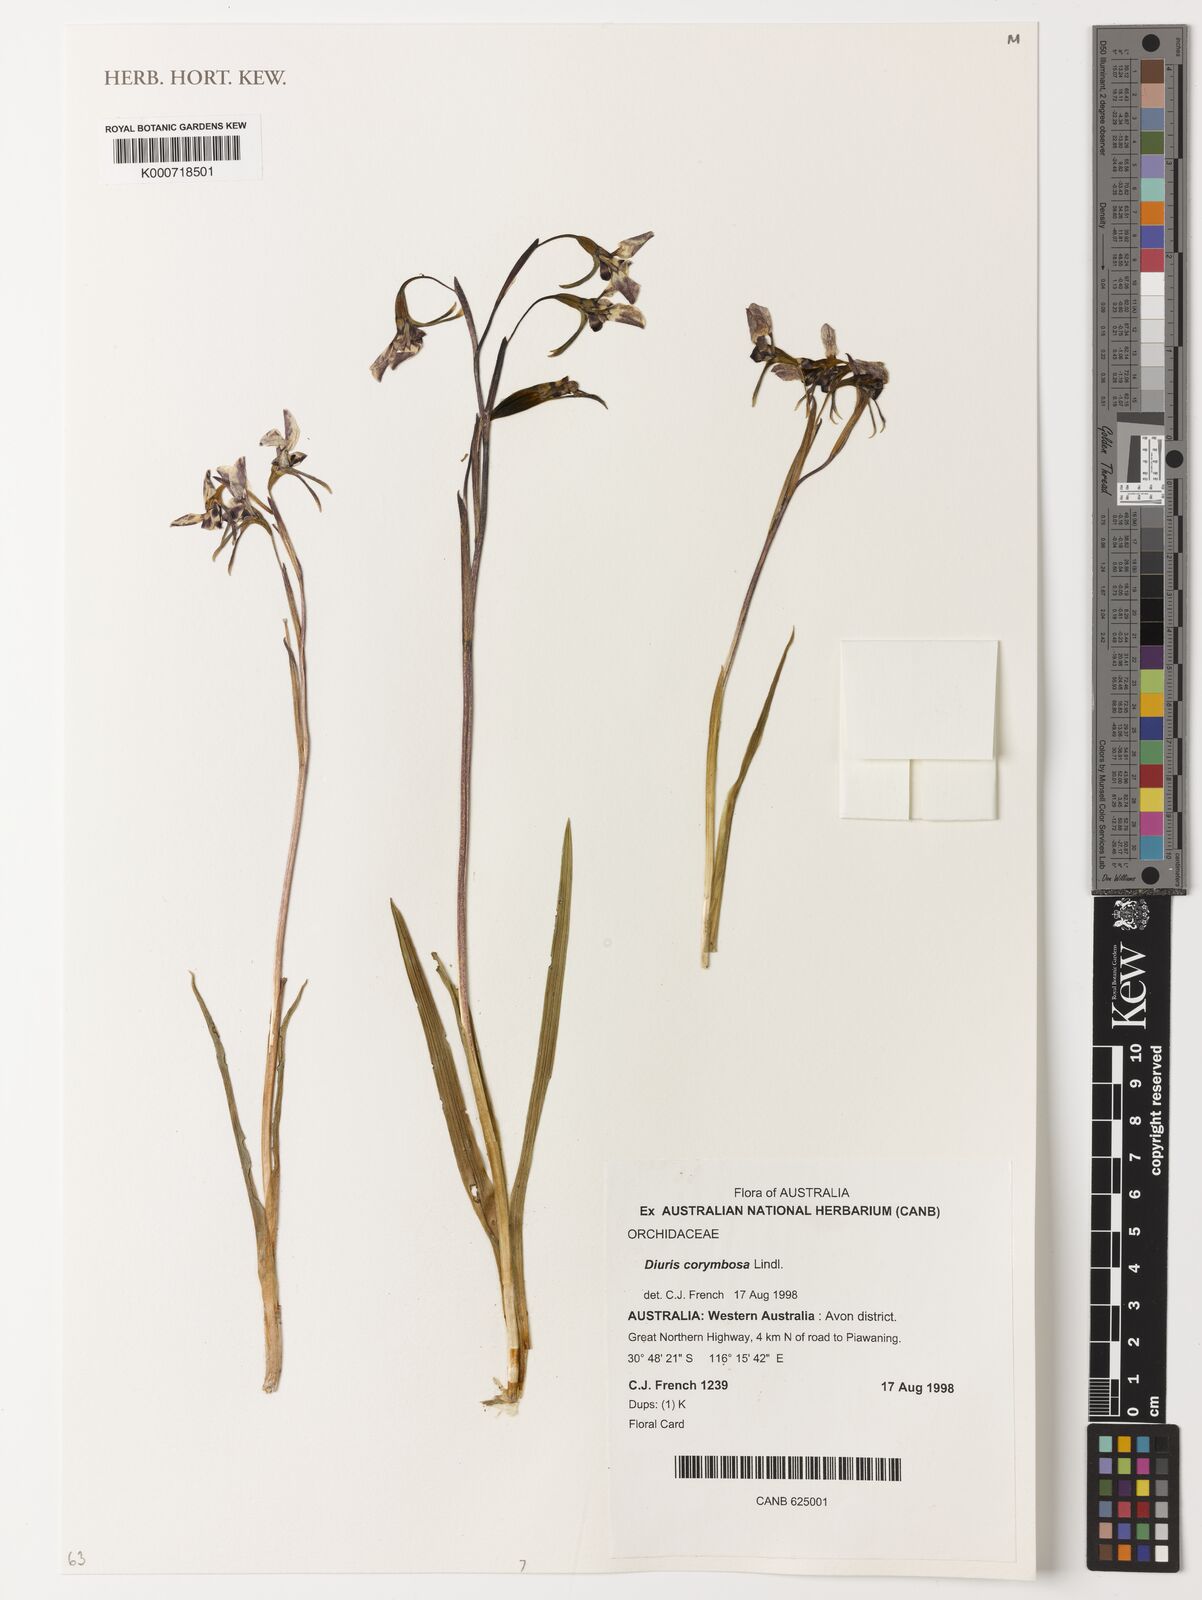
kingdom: Plantae
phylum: Tracheophyta
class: Liliopsida
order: Asparagales
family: Orchidaceae
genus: Diuris
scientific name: Diuris corymbosa
